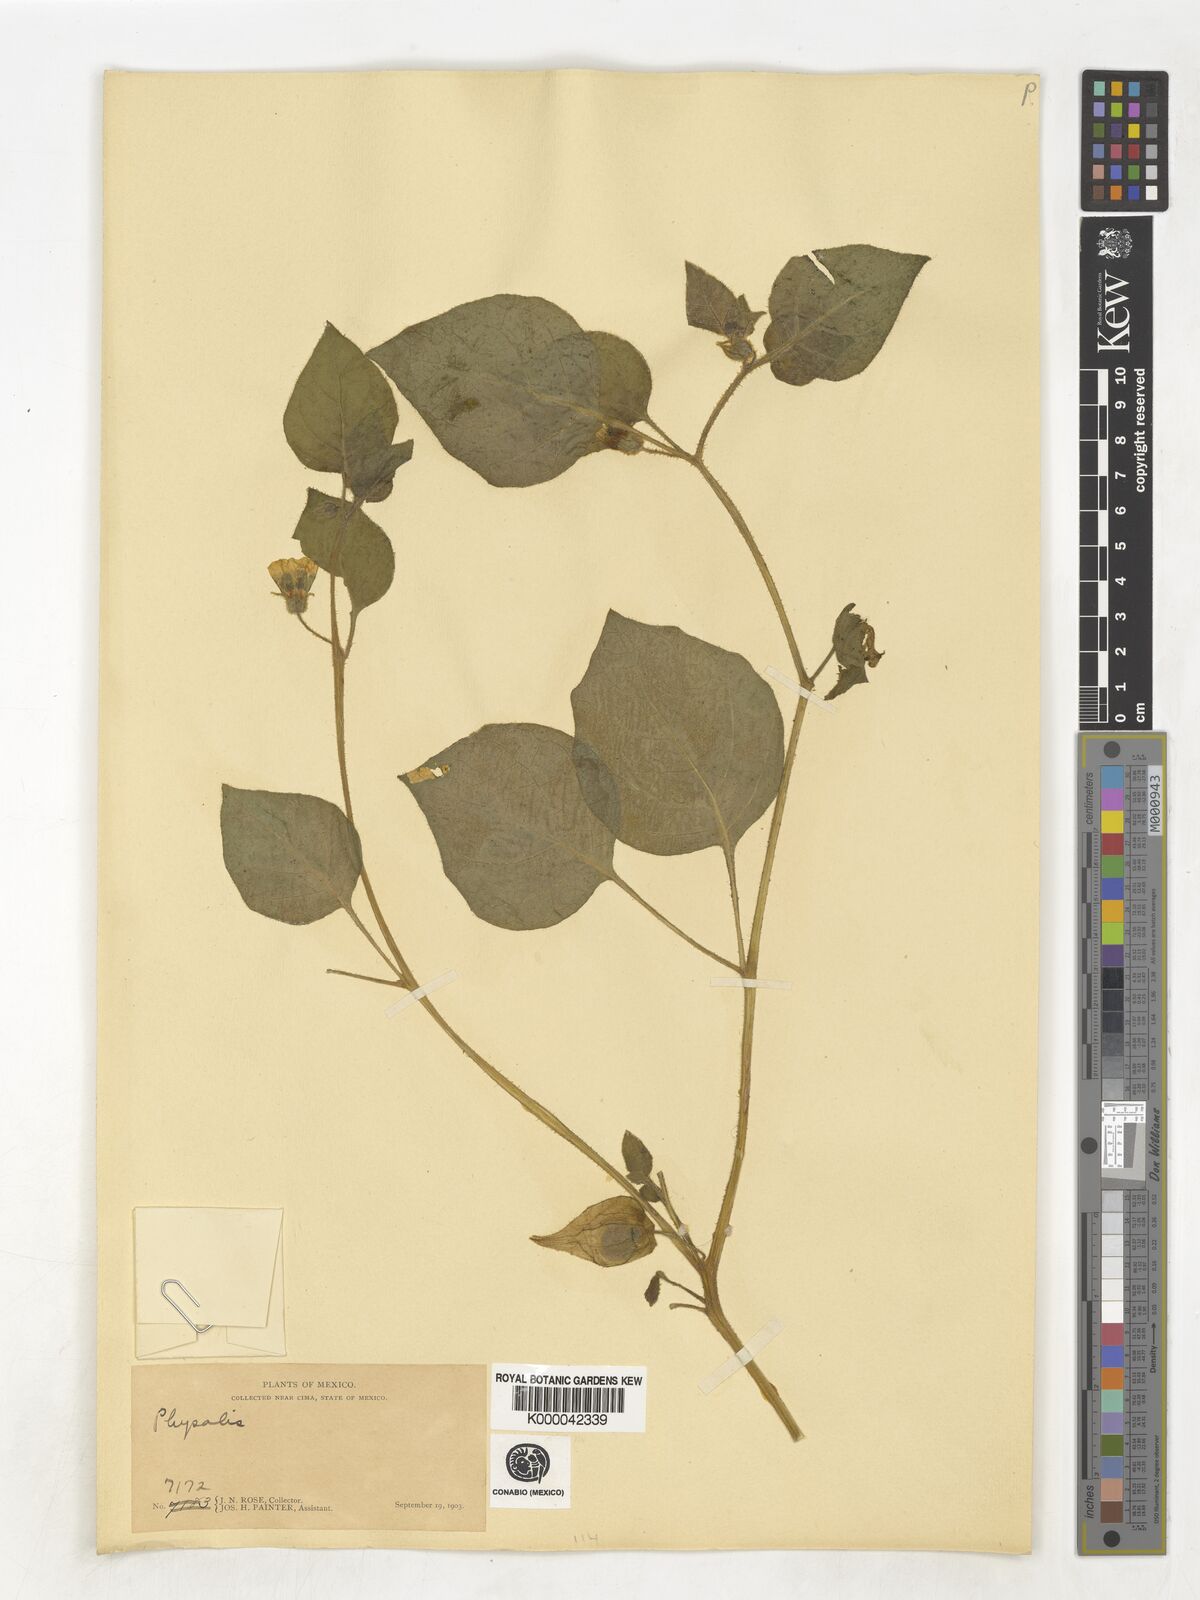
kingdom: Plantae
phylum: Tracheophyta
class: Magnoliopsida
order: Solanales
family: Solanaceae
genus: Physalis
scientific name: Physalis
